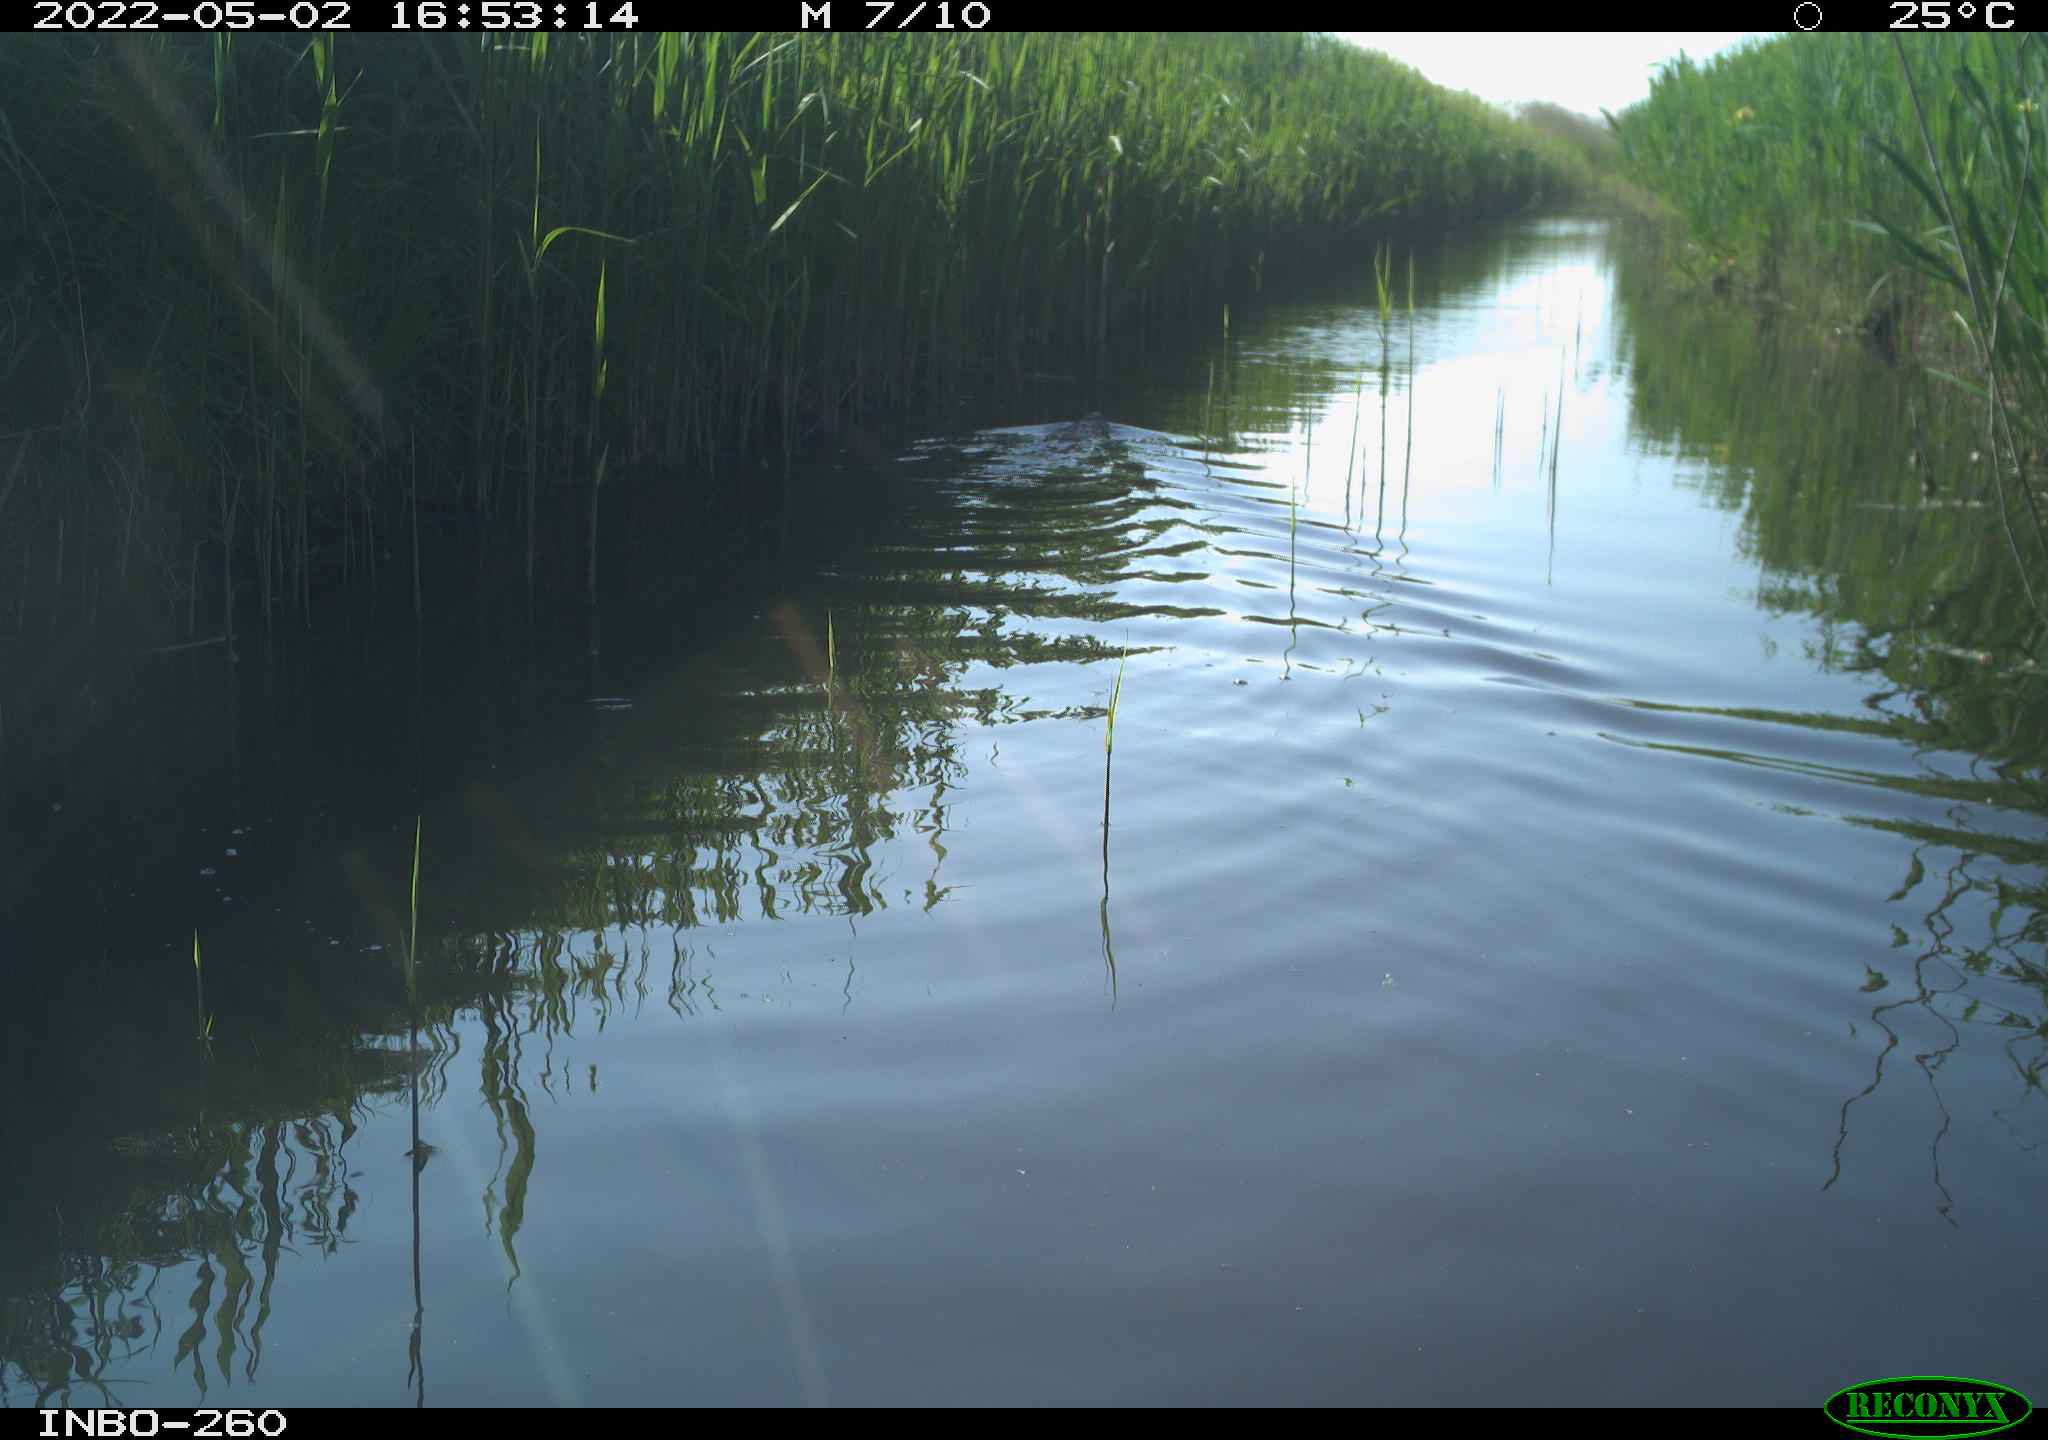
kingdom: Animalia
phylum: Chordata
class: Mammalia
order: Rodentia
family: Castoridae
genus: Castor
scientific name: Castor fiber
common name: Eurasian beaver
